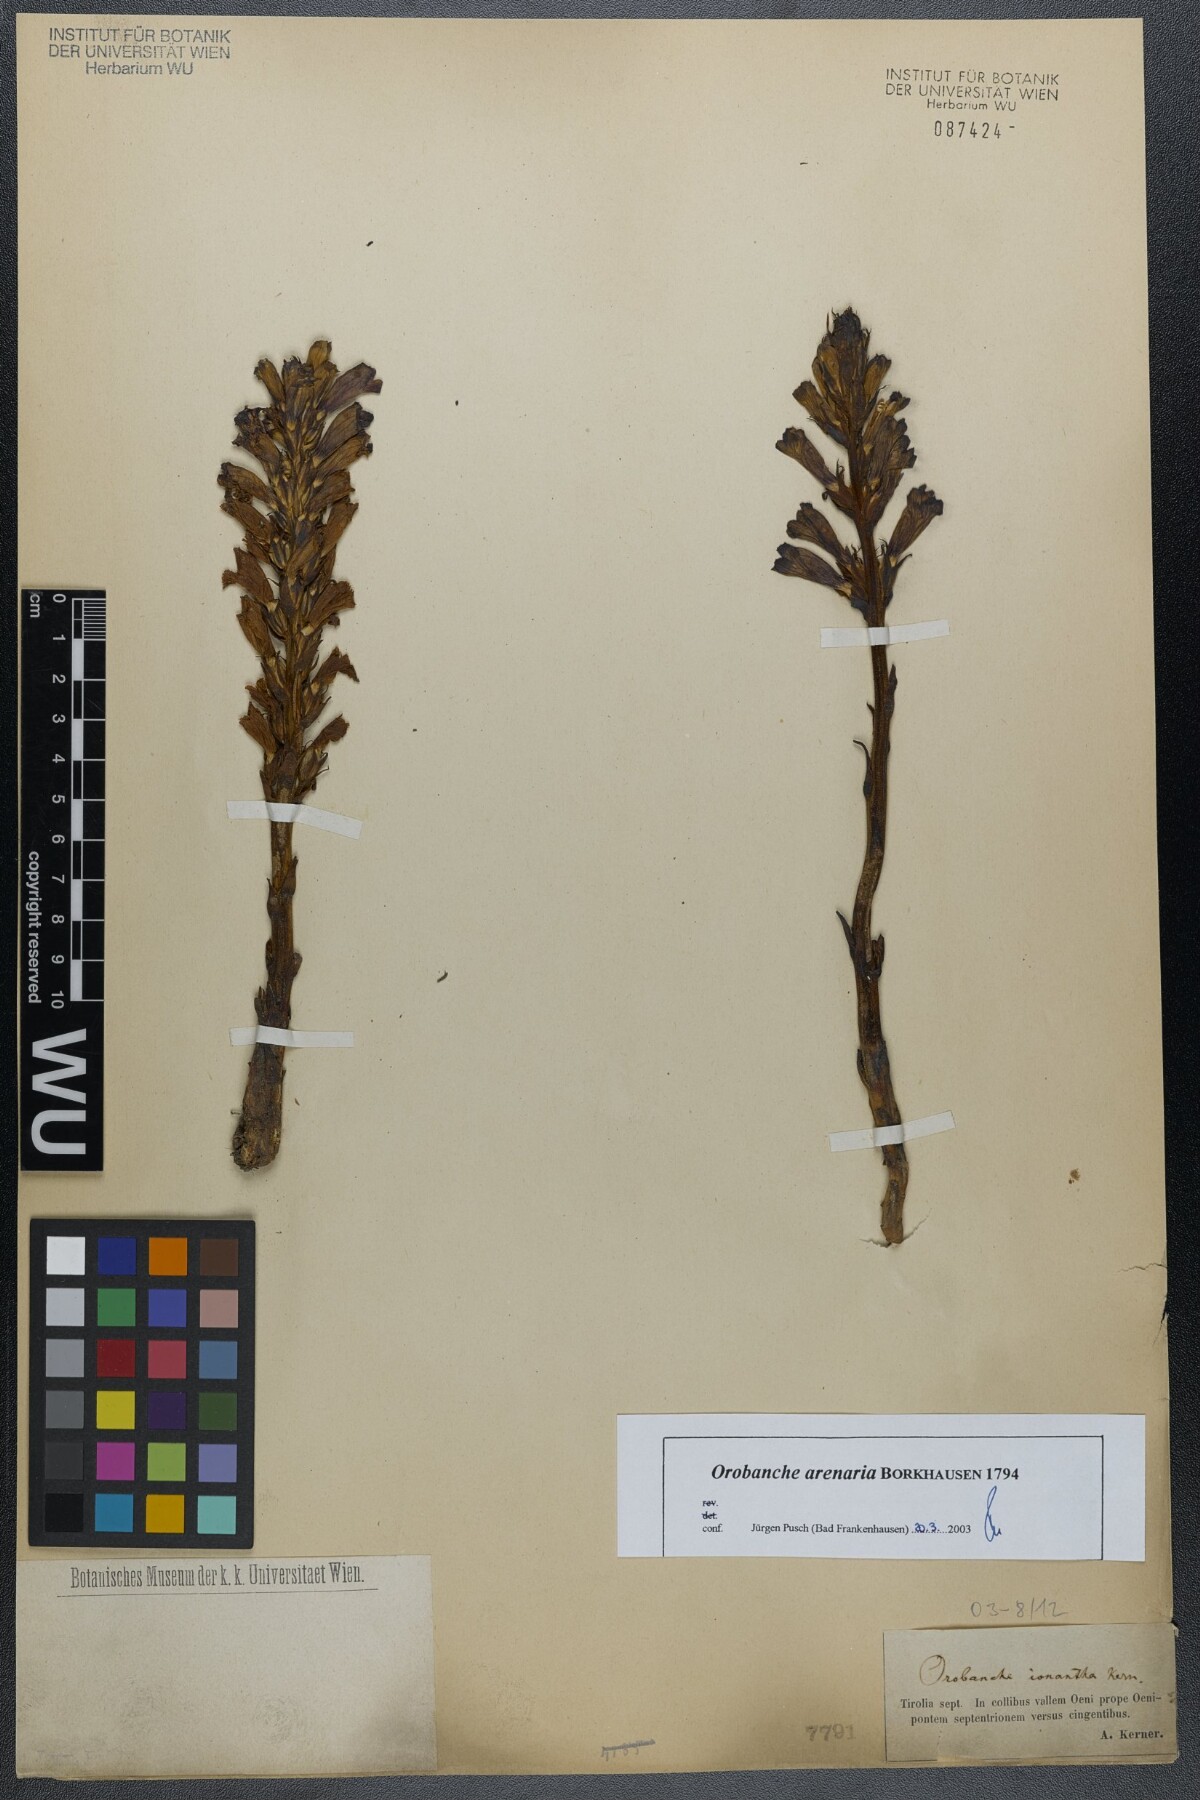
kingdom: Plantae
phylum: Tracheophyta
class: Magnoliopsida
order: Lamiales
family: Orobanchaceae
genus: Phelipanche
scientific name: Phelipanche arenaria
